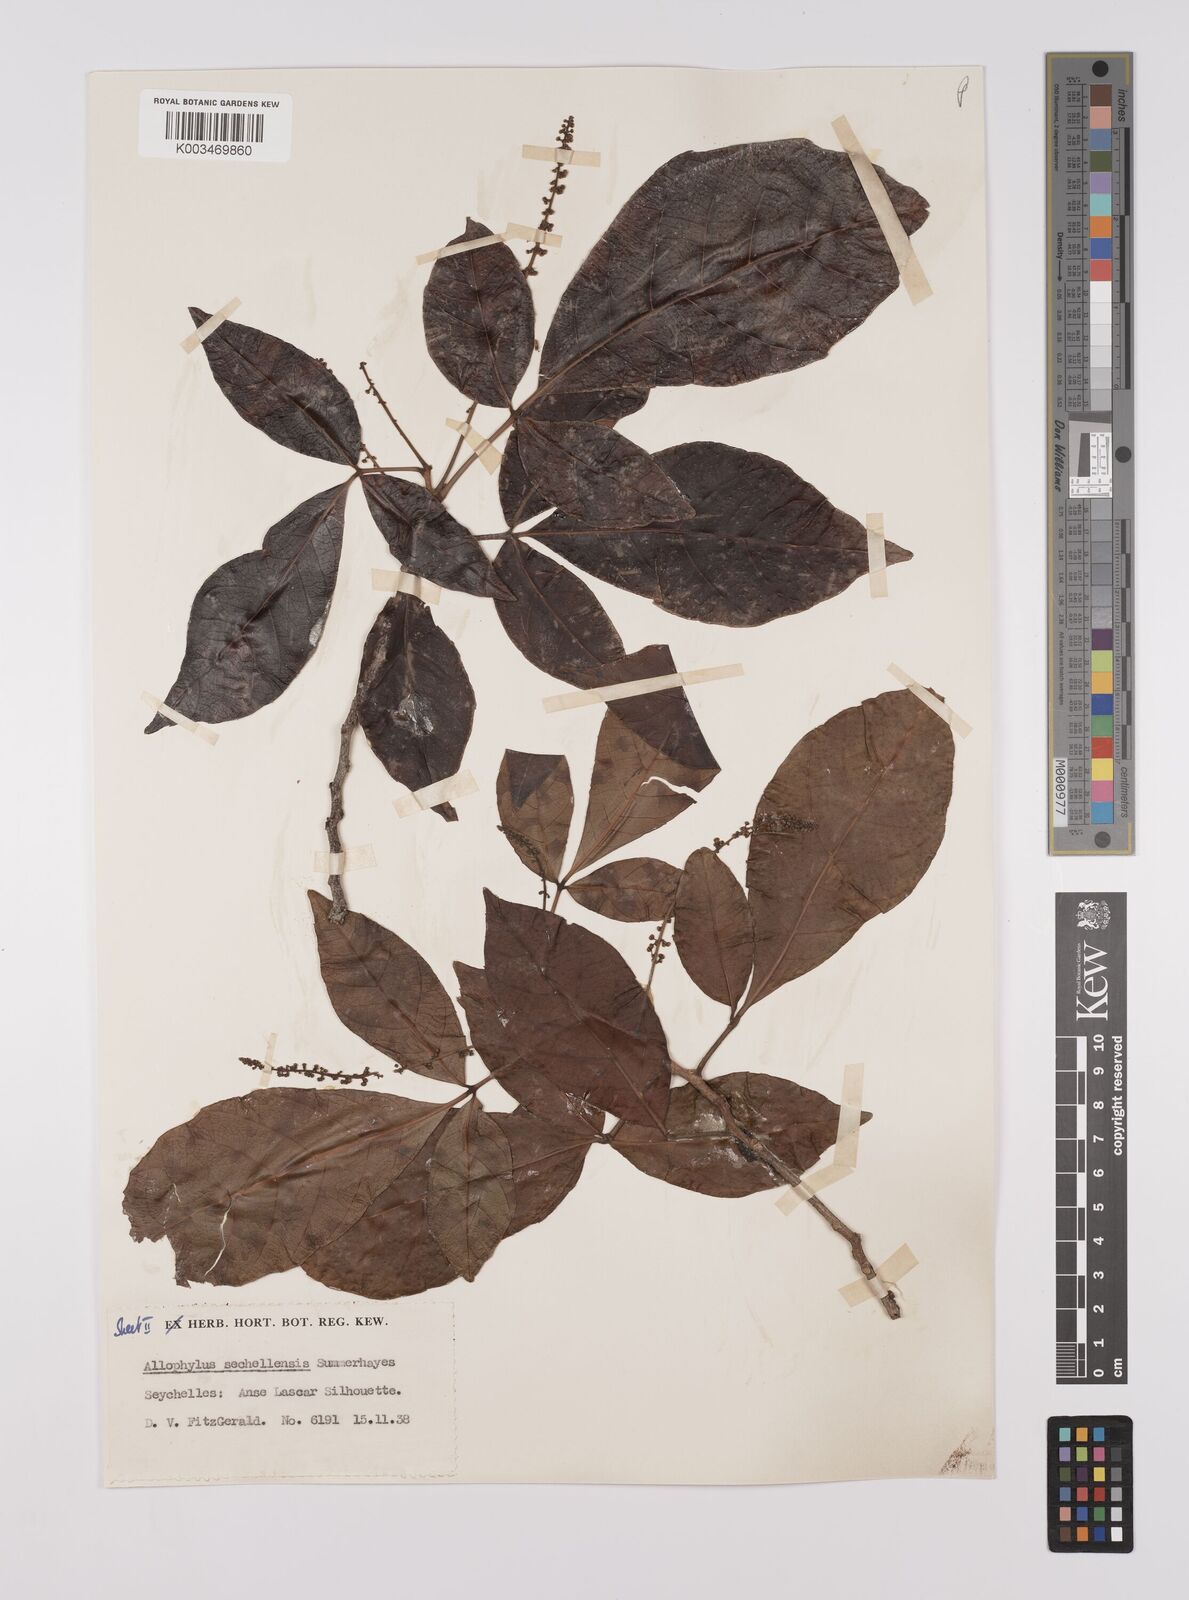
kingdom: Plantae
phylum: Tracheophyta
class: Magnoliopsida
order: Sapindales
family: Sapindaceae
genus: Allophylus
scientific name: Allophylus sechellensis
